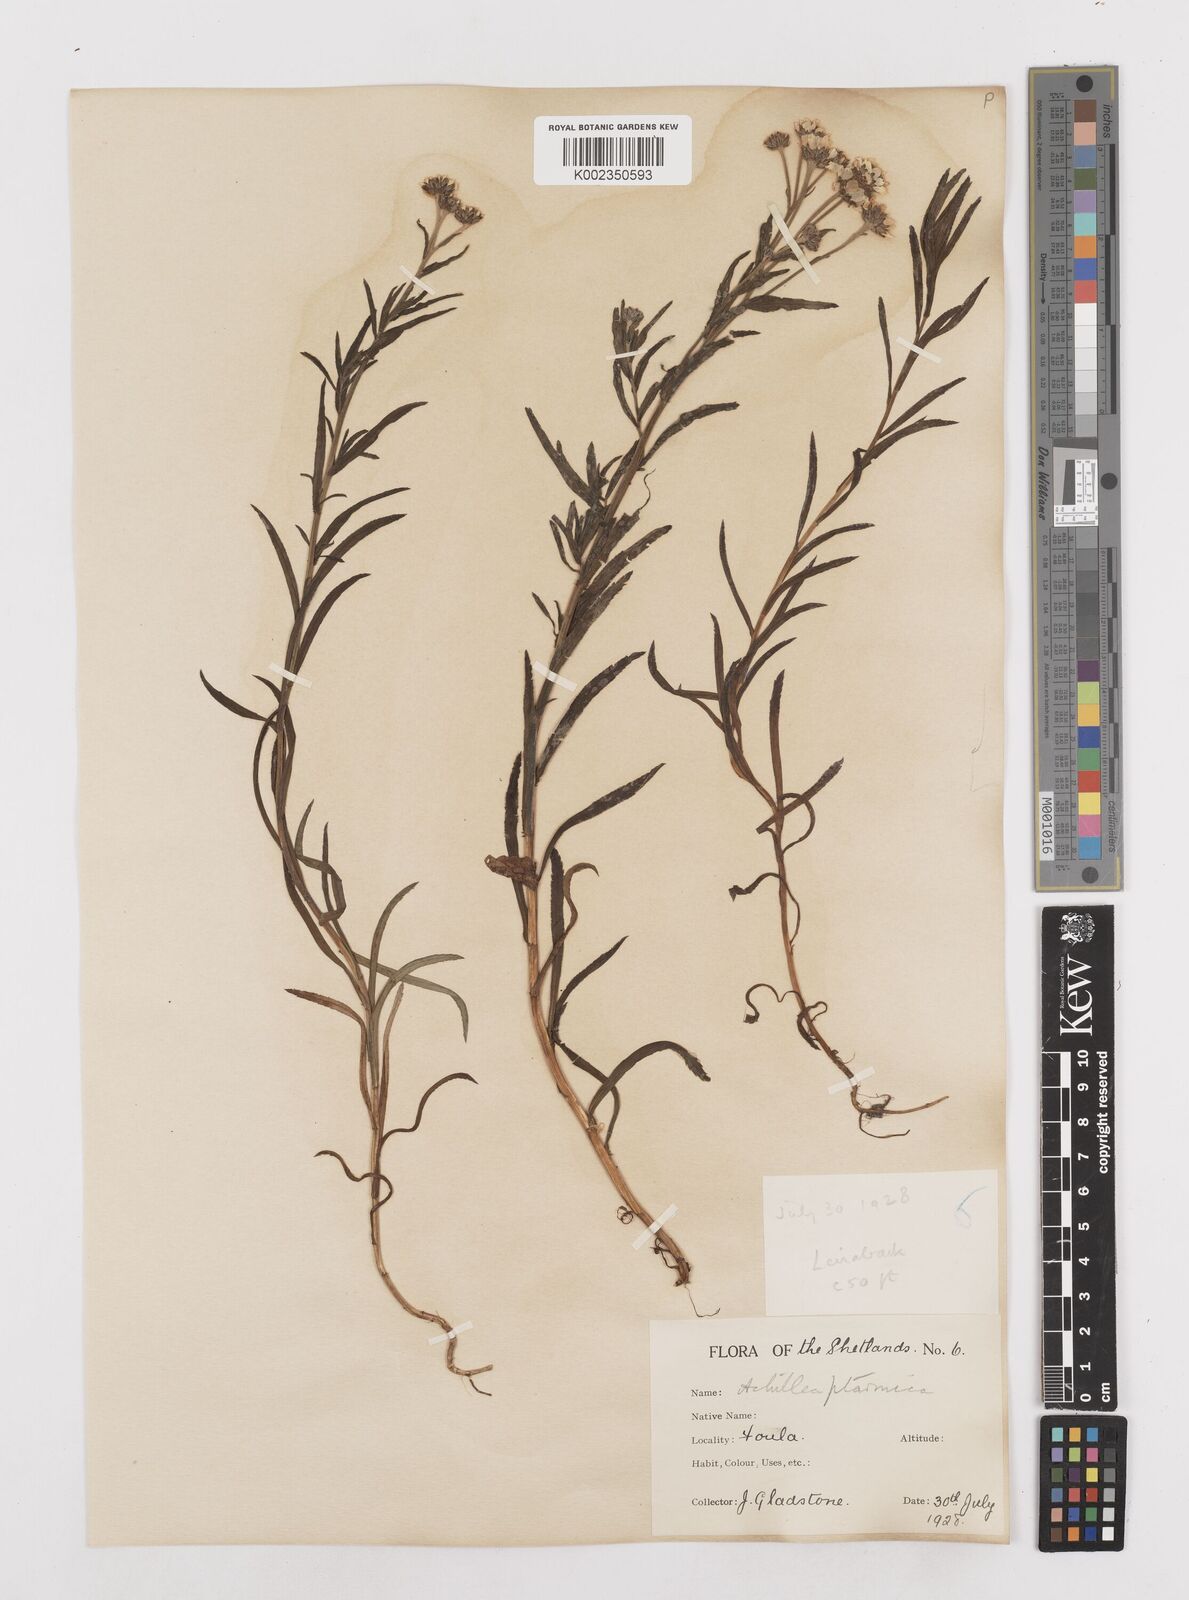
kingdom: Plantae
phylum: Tracheophyta
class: Magnoliopsida
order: Asterales
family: Asteraceae
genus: Achillea
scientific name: Achillea ptarmica
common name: Sneezeweed
